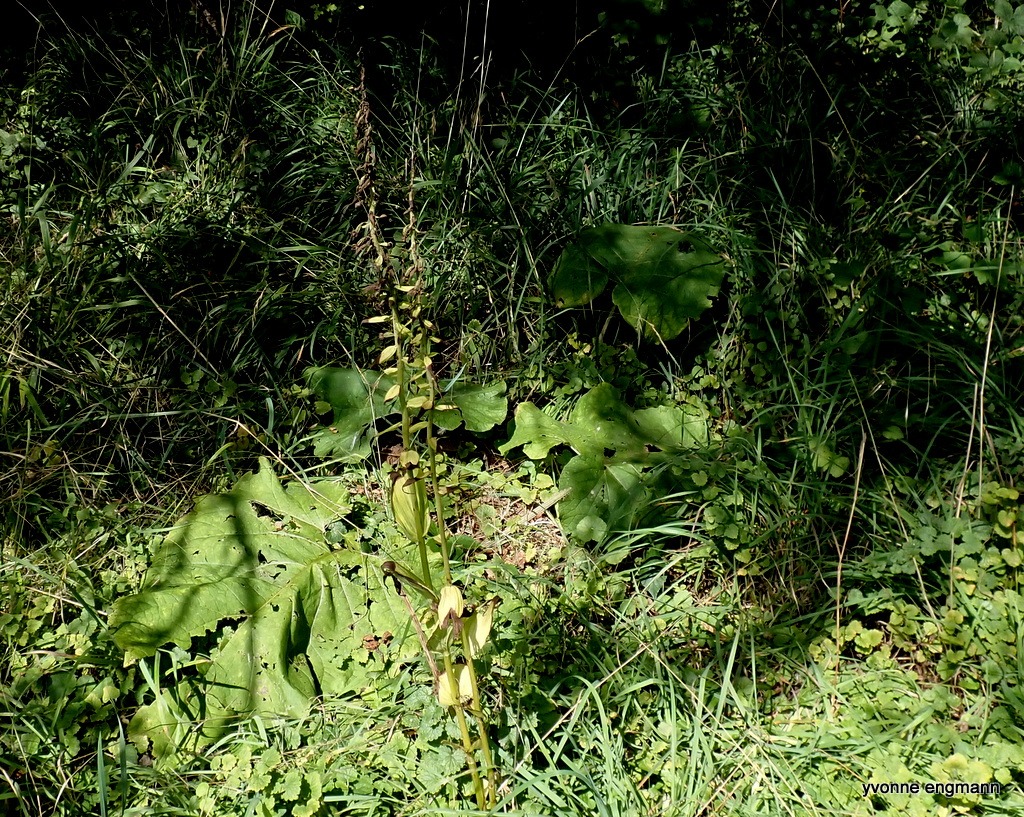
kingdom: Plantae
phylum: Tracheophyta
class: Liliopsida
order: Asparagales
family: Orchidaceae
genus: Epipactis
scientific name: Epipactis helleborine
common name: Skov-hullæbe
